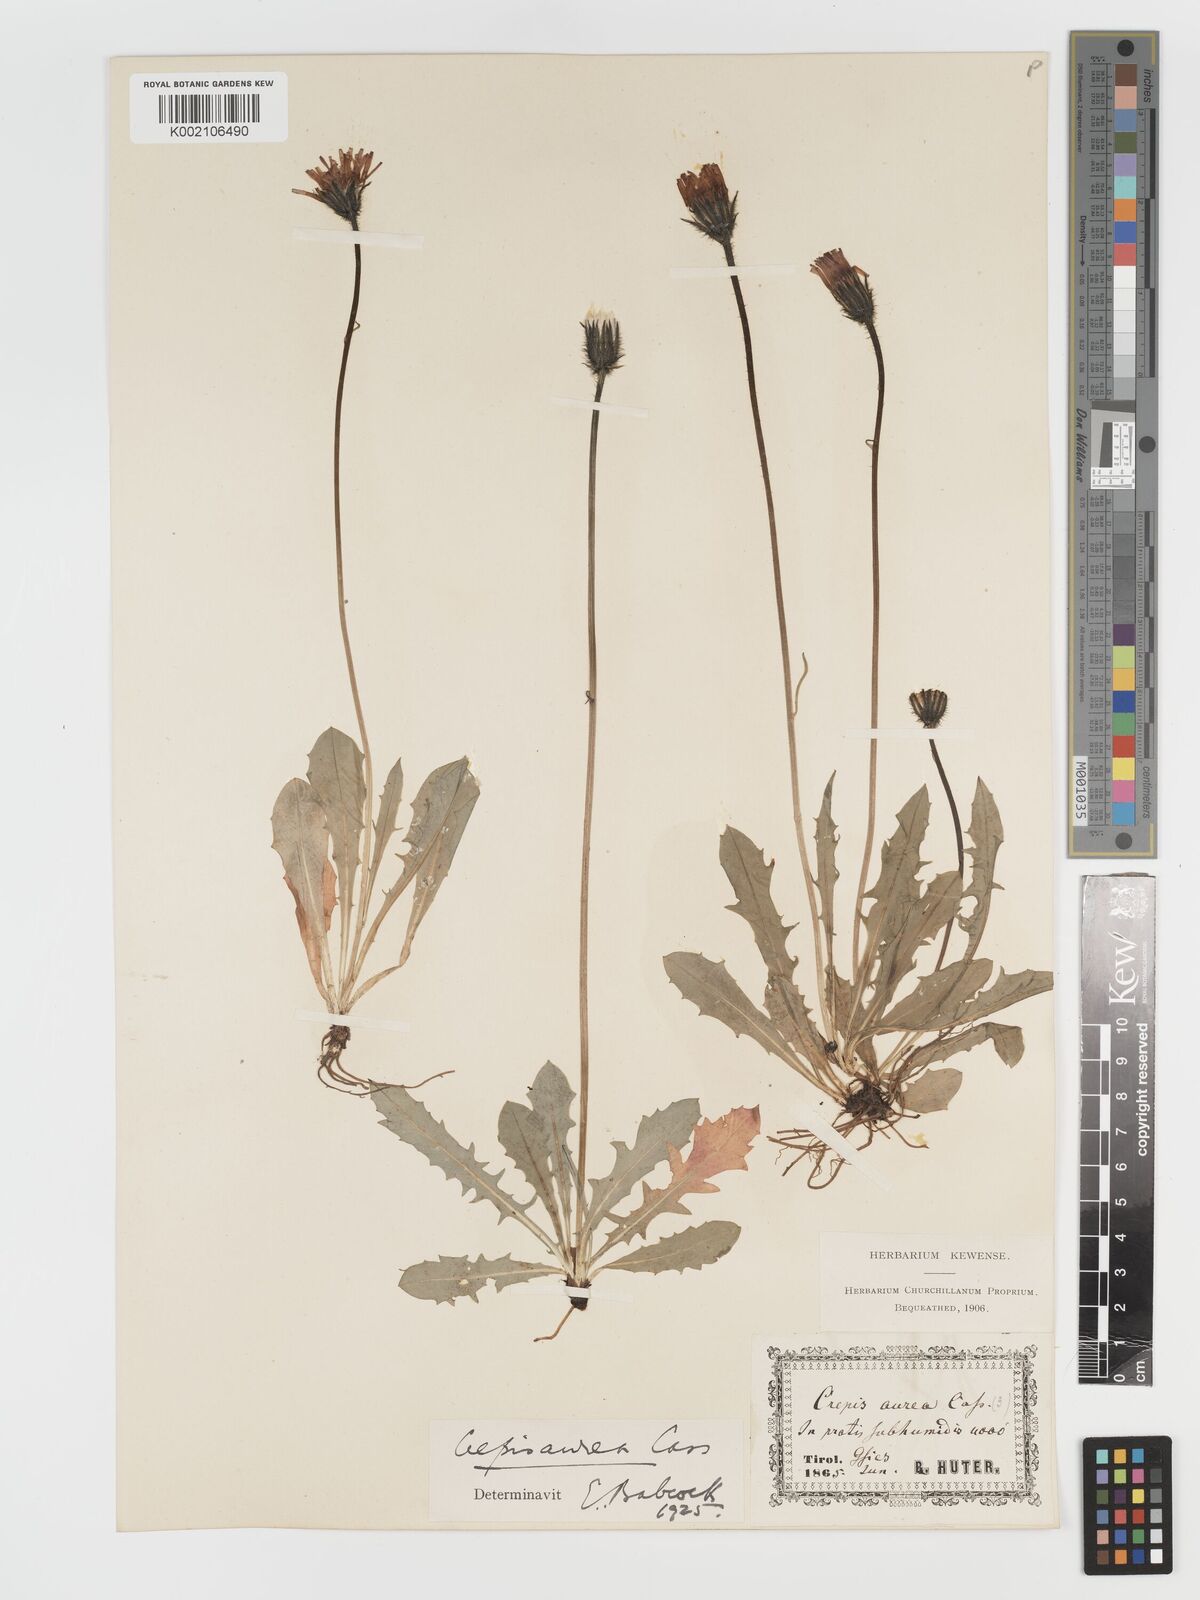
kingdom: Plantae
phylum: Tracheophyta
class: Magnoliopsida
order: Asterales
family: Asteraceae
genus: Crepis
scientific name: Crepis aurea
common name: Golden hawk's-beard
